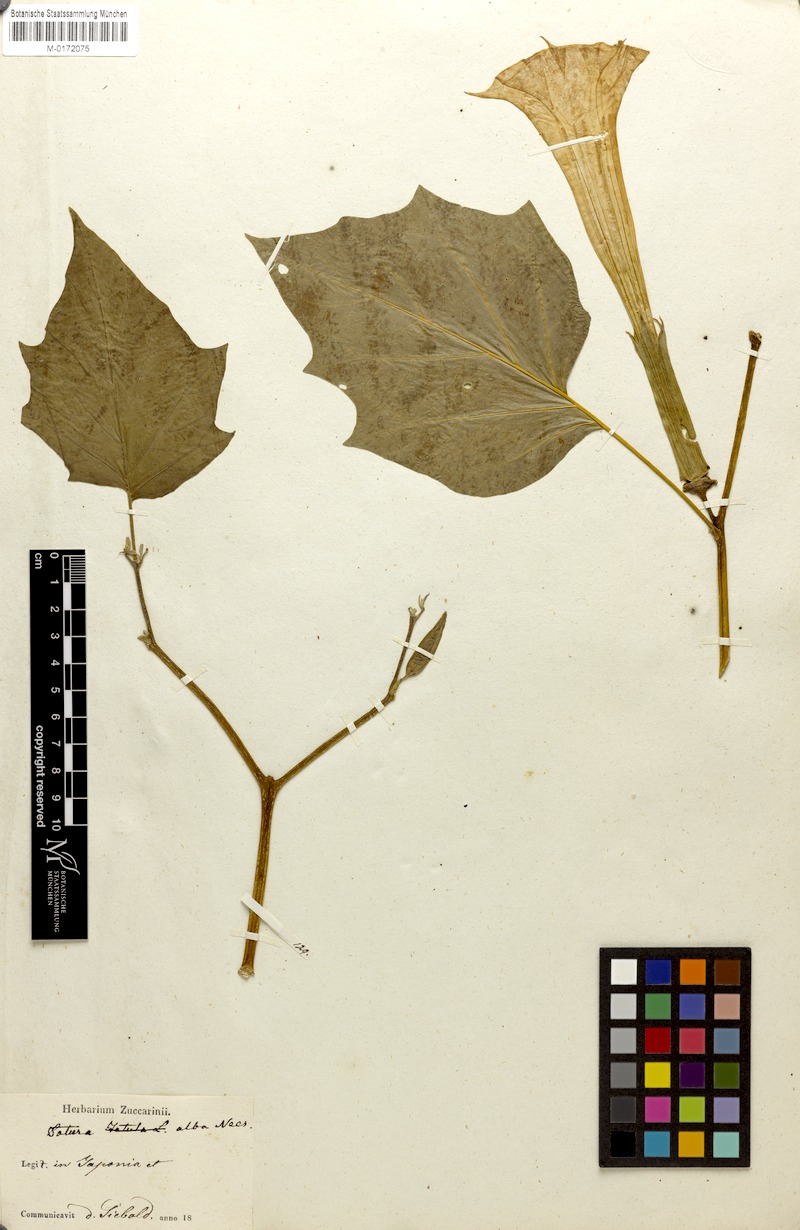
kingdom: Plantae
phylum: Tracheophyta
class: Magnoliopsida
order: Solanales
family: Solanaceae
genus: Datura
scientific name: Datura metel
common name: Jimsonweed
